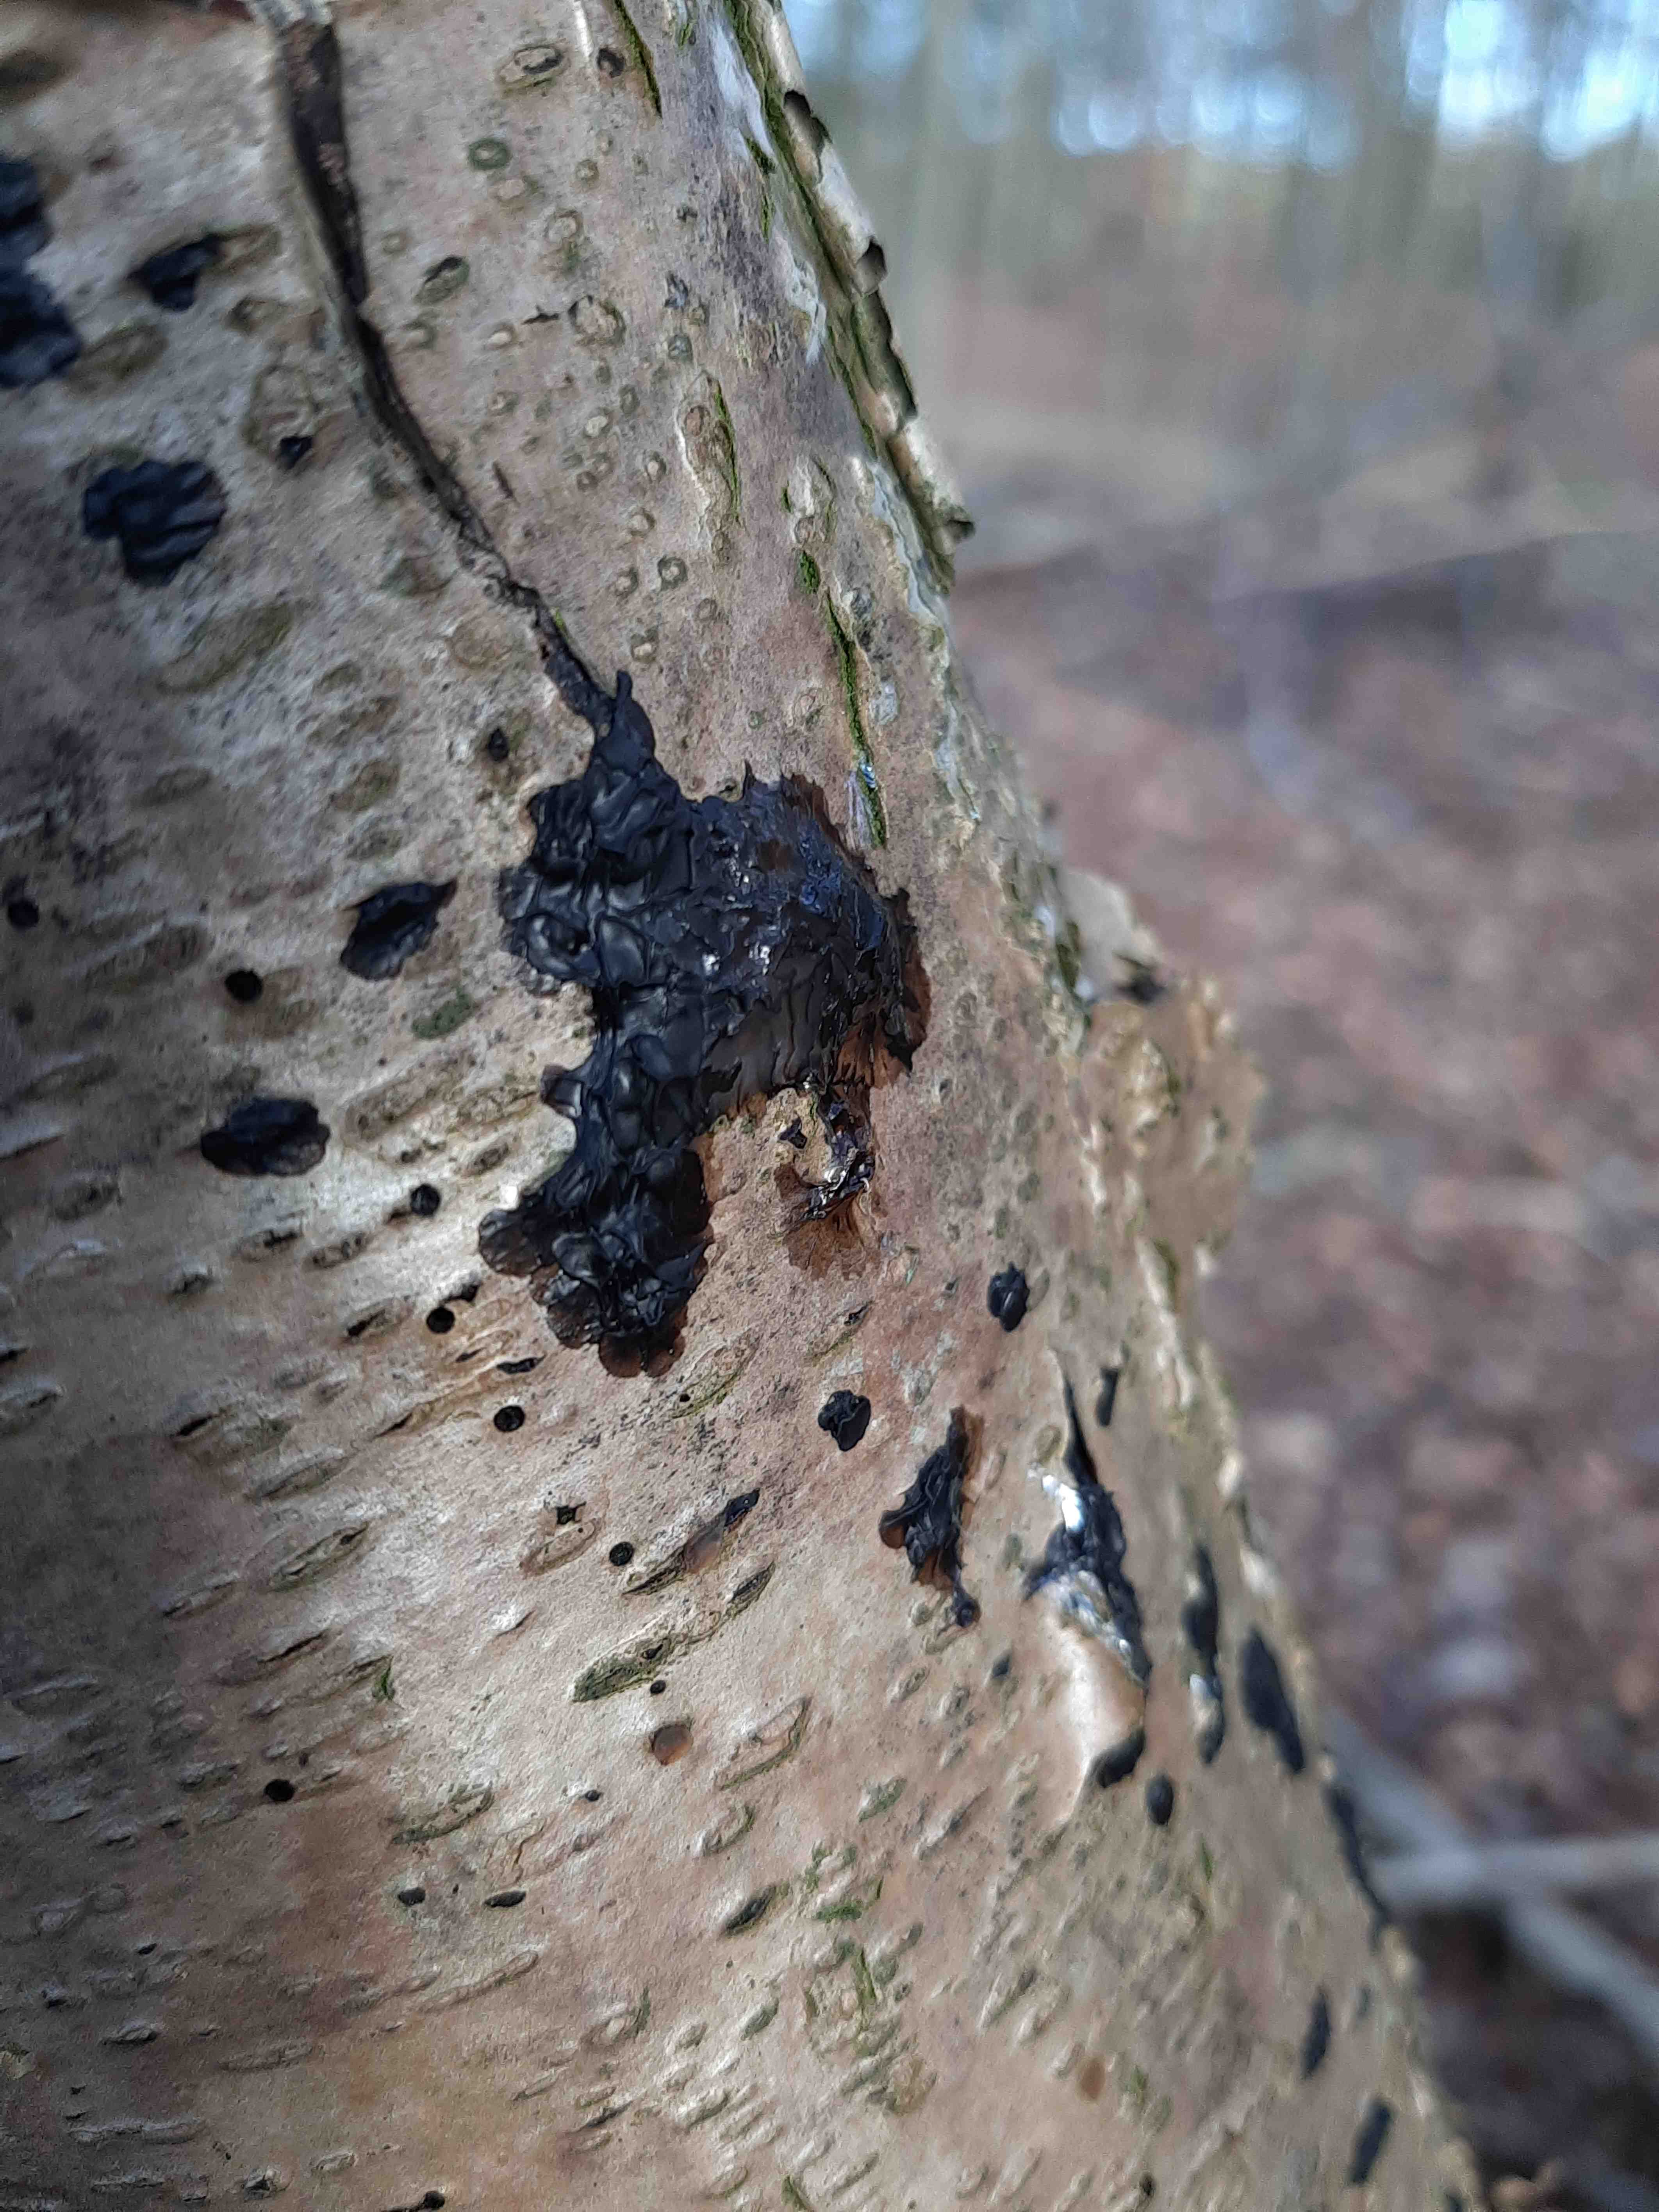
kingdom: Fungi
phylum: Basidiomycota
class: Agaricomycetes
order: Auriculariales
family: Auriculariaceae
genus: Exidia
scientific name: Exidia nigricans
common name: almindelig bævretop
